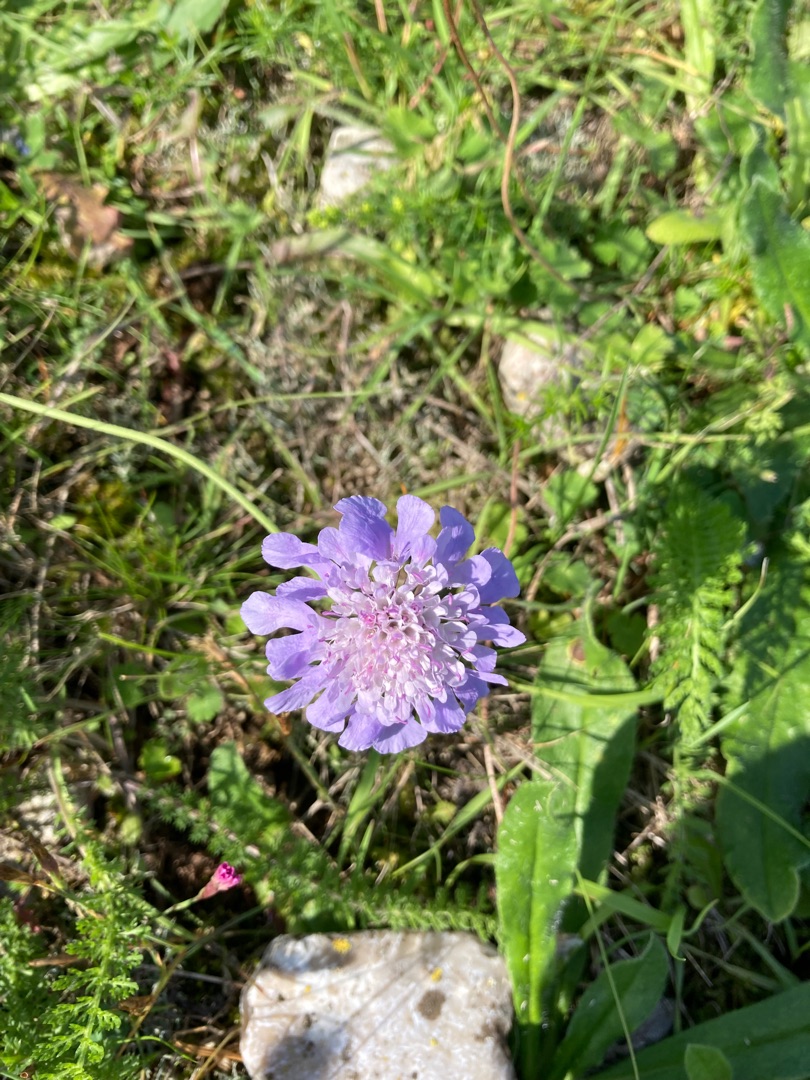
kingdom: Plantae
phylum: Tracheophyta
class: Magnoliopsida
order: Dipsacales
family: Caprifoliaceae
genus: Scabiosa
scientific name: Scabiosa columbaria
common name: Due-skabiose
